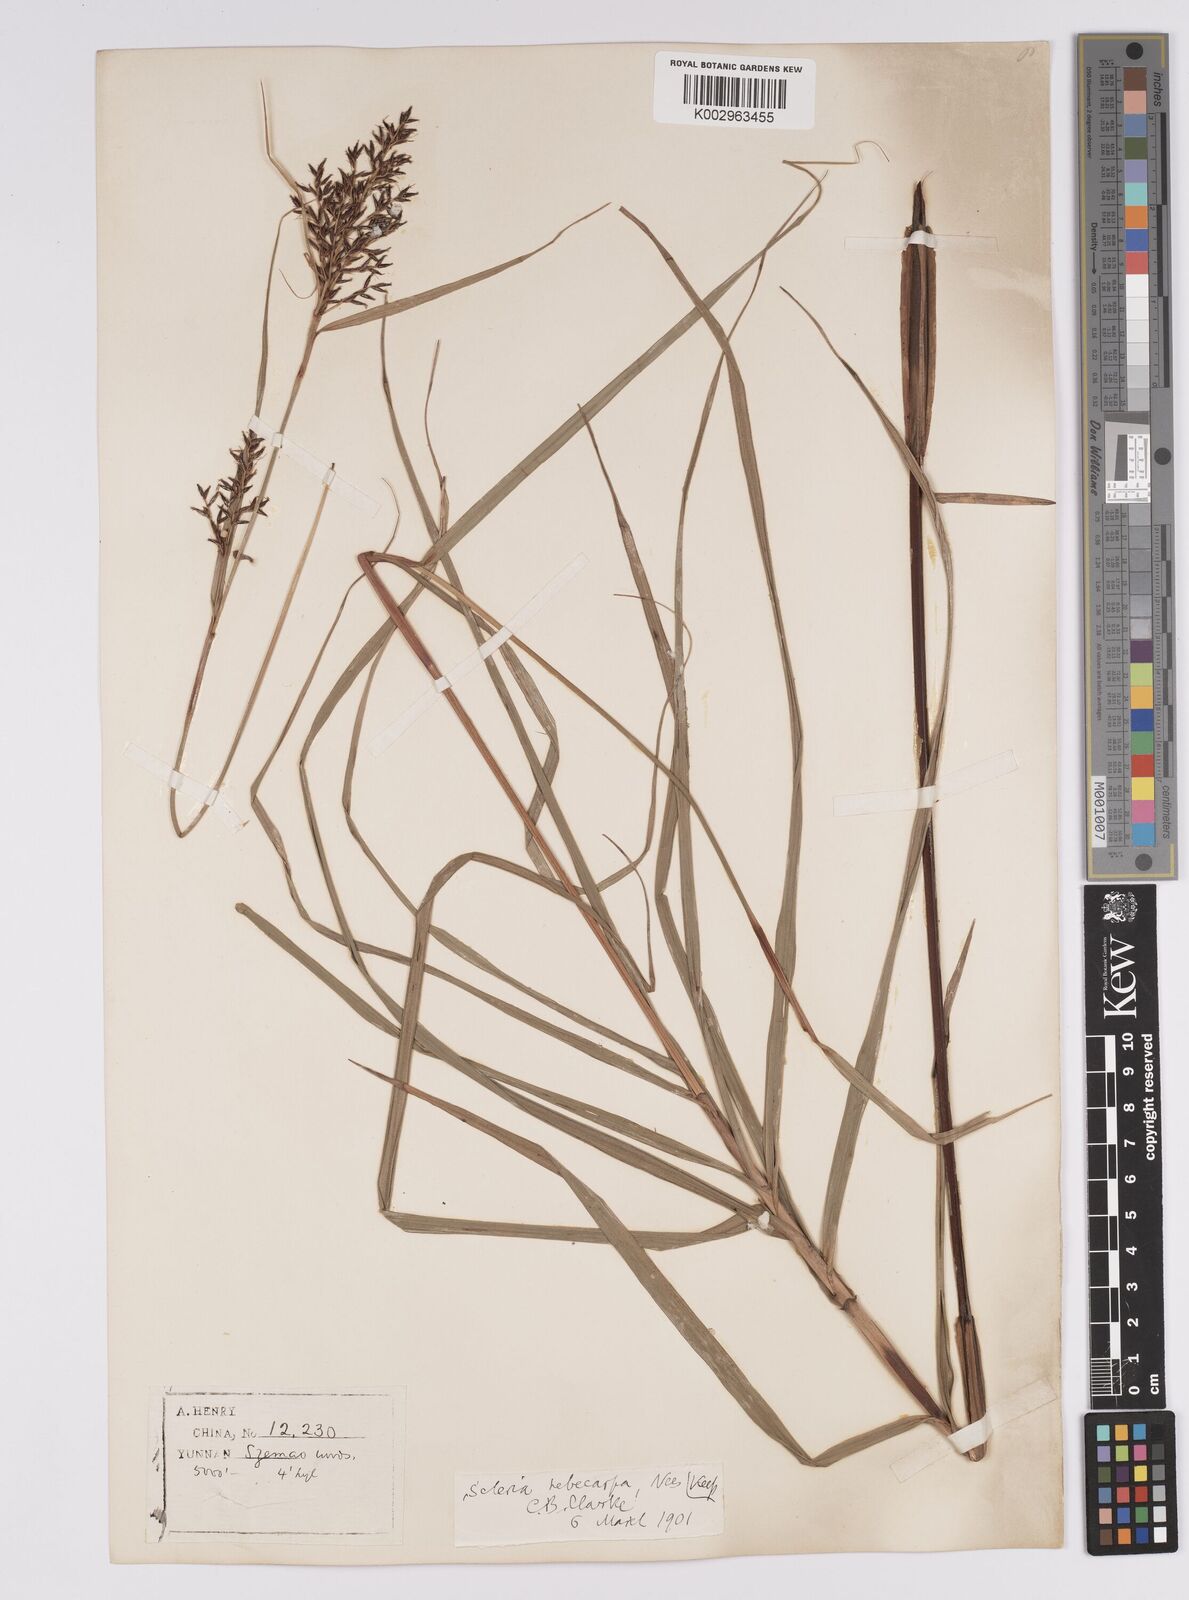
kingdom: Plantae
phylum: Tracheophyta
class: Liliopsida
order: Poales
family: Cyperaceae
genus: Scleria
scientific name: Scleria levis
